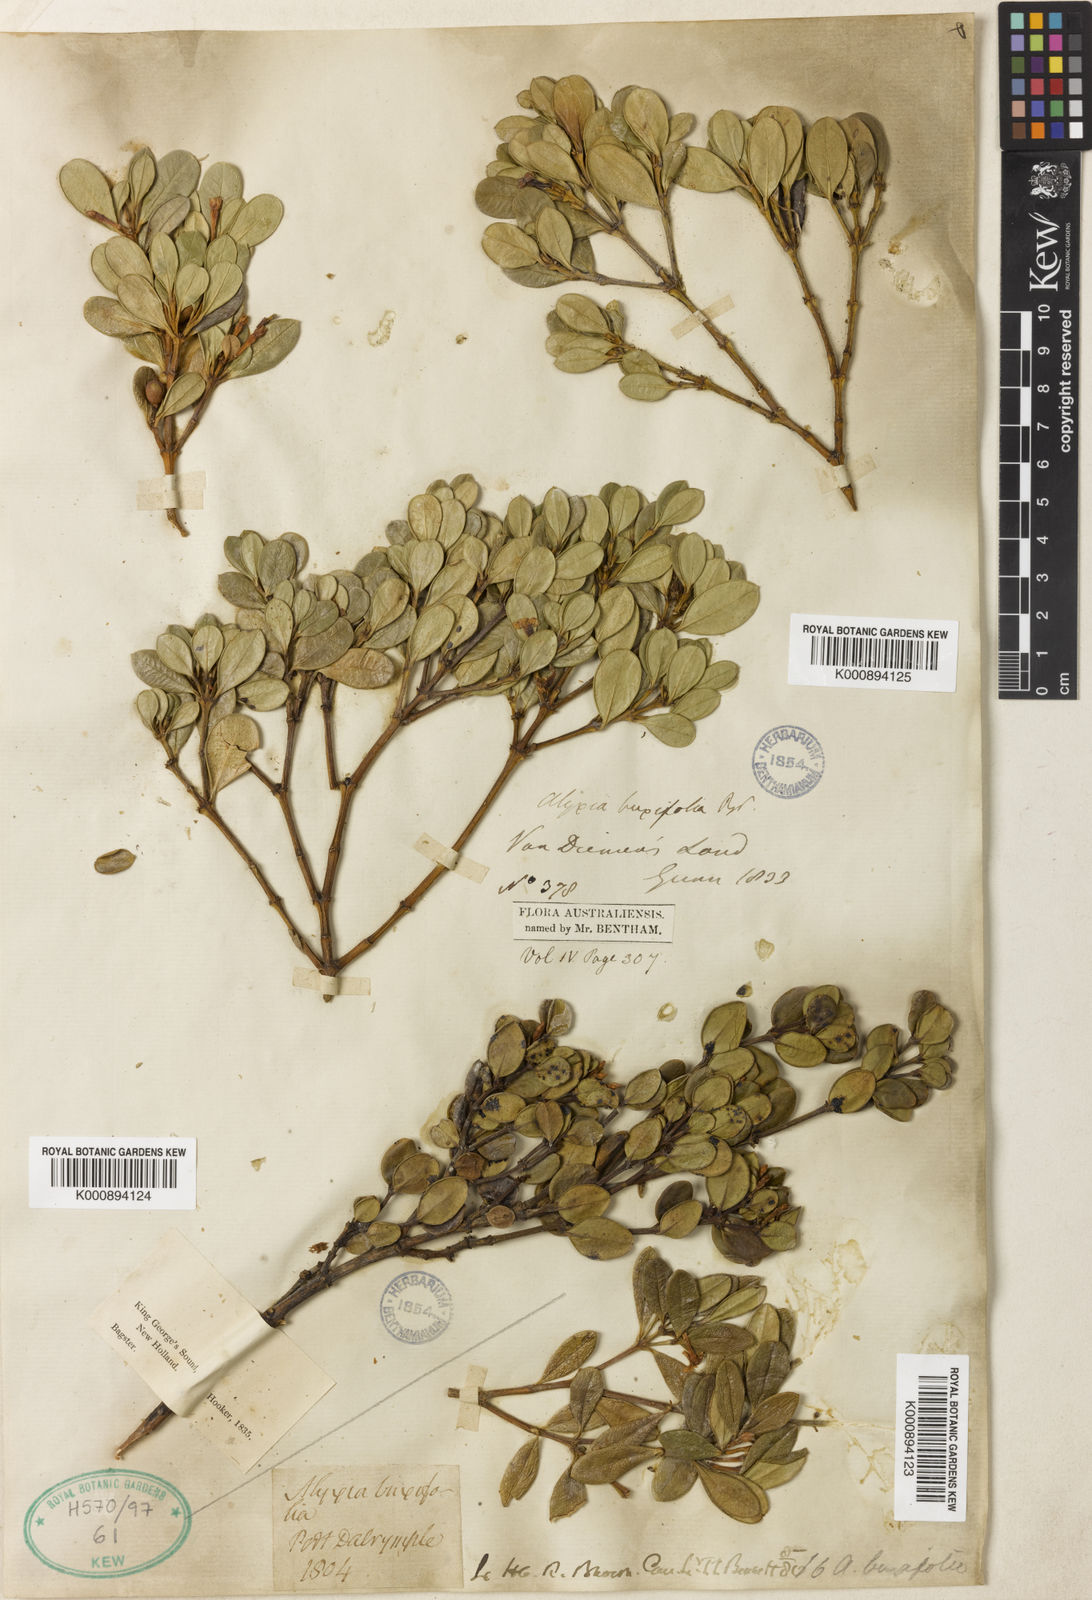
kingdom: Plantae
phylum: Tracheophyta
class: Magnoliopsida
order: Gentianales
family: Apocynaceae
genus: Alyxia
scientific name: Alyxia buxifolia
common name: Dysentery-bush
